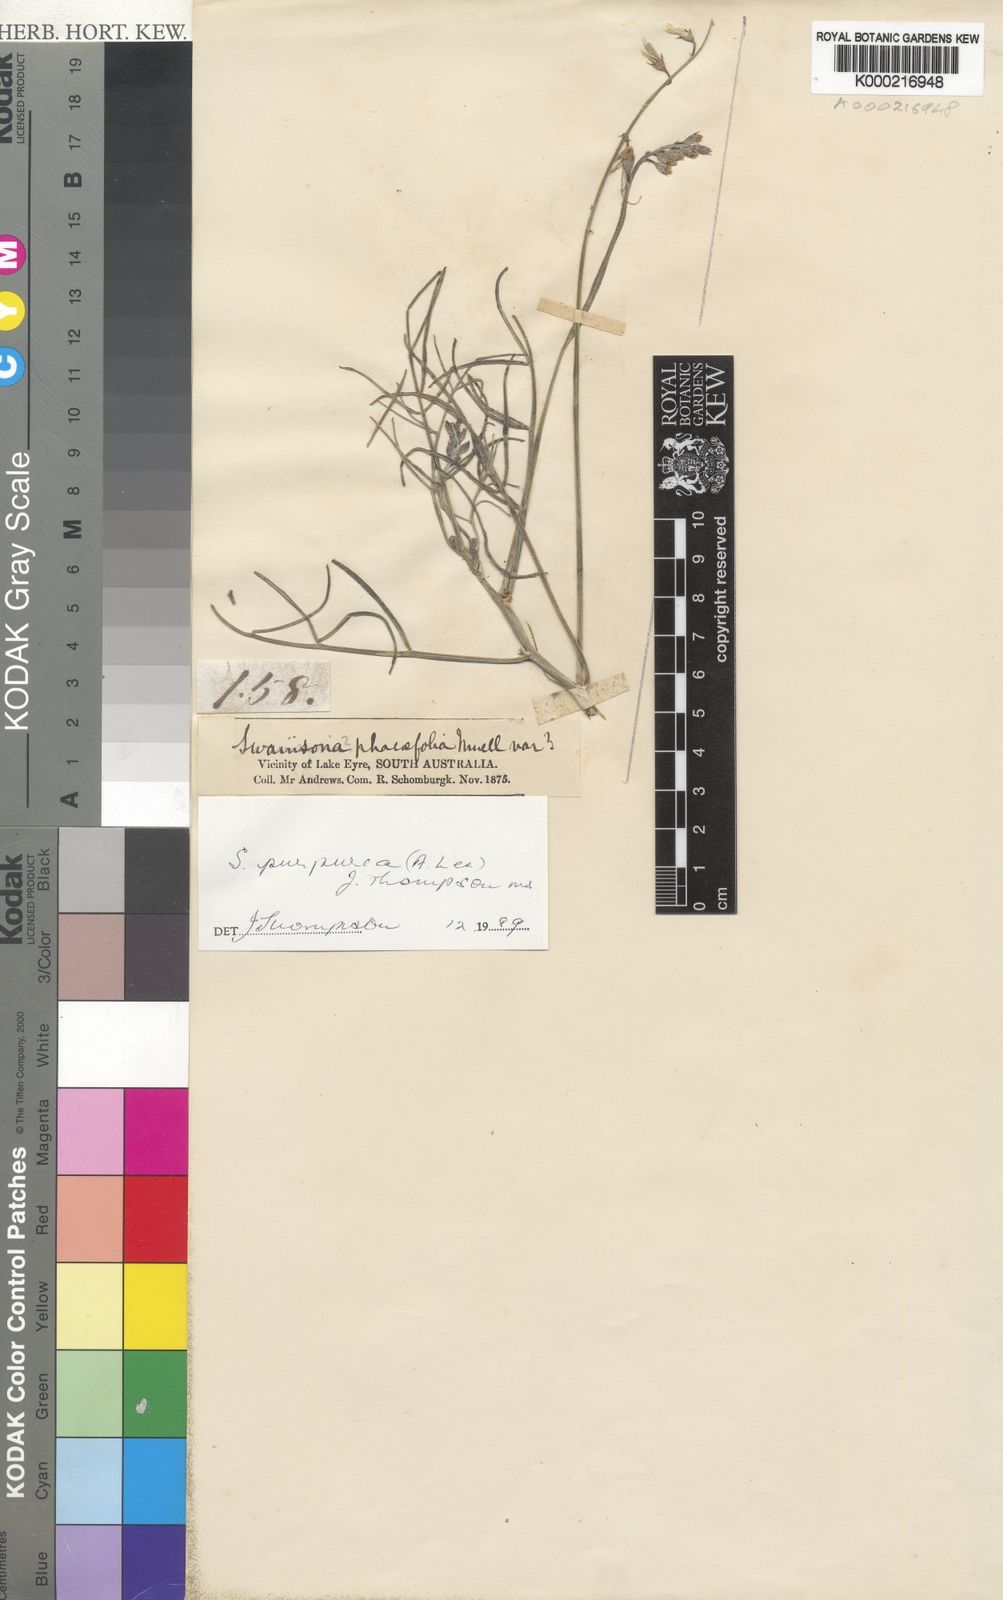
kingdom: Plantae
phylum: Tracheophyta
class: Magnoliopsida
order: Fabales
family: Fabaceae
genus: Swainsona
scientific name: Swainsona procumbens
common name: Broughton-pea
